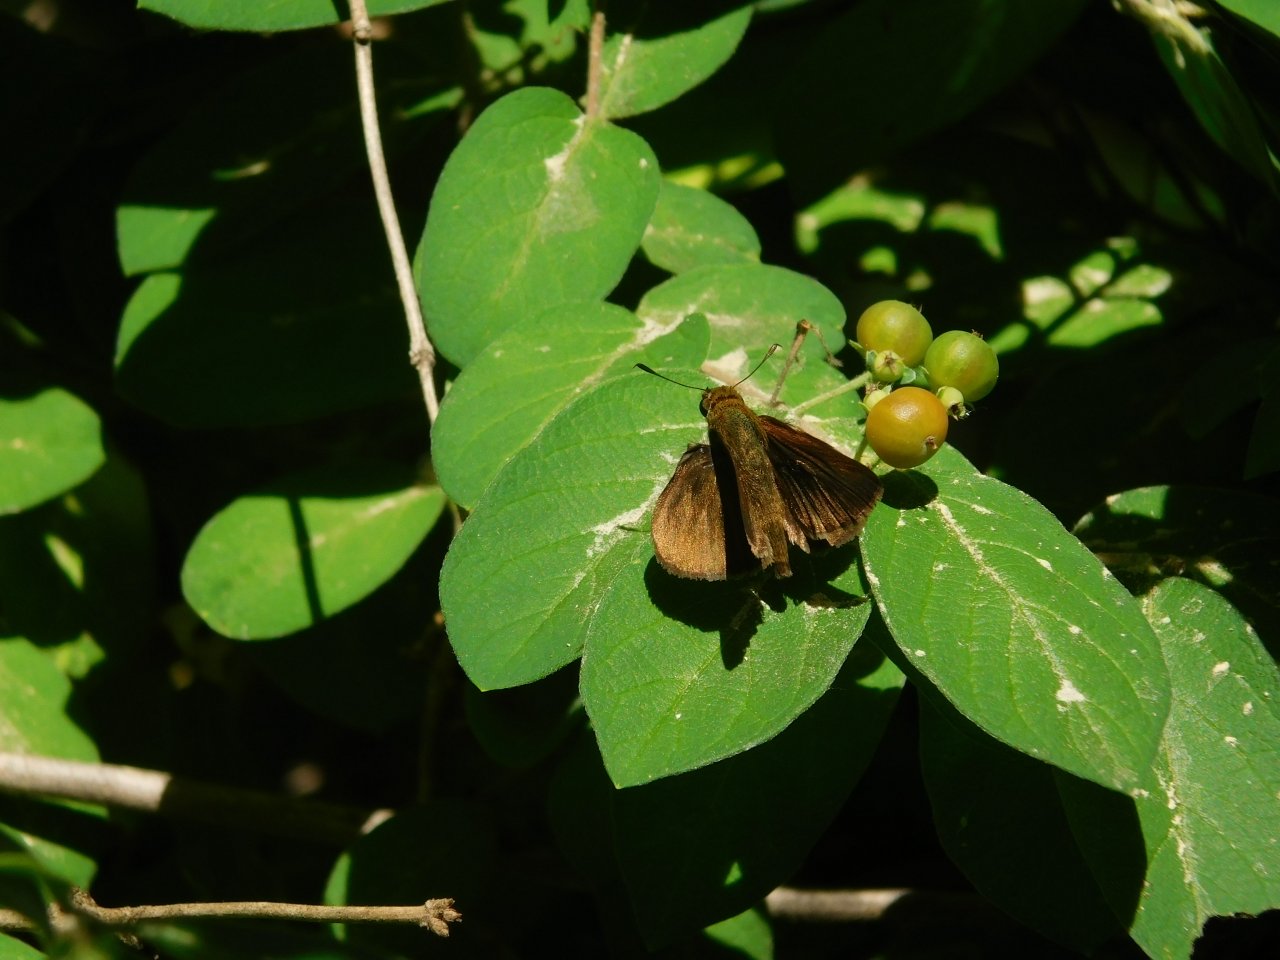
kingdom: Animalia
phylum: Arthropoda
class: Insecta
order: Lepidoptera
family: Hesperiidae
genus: Euphyes
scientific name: Euphyes vestris
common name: Dun Skipper
